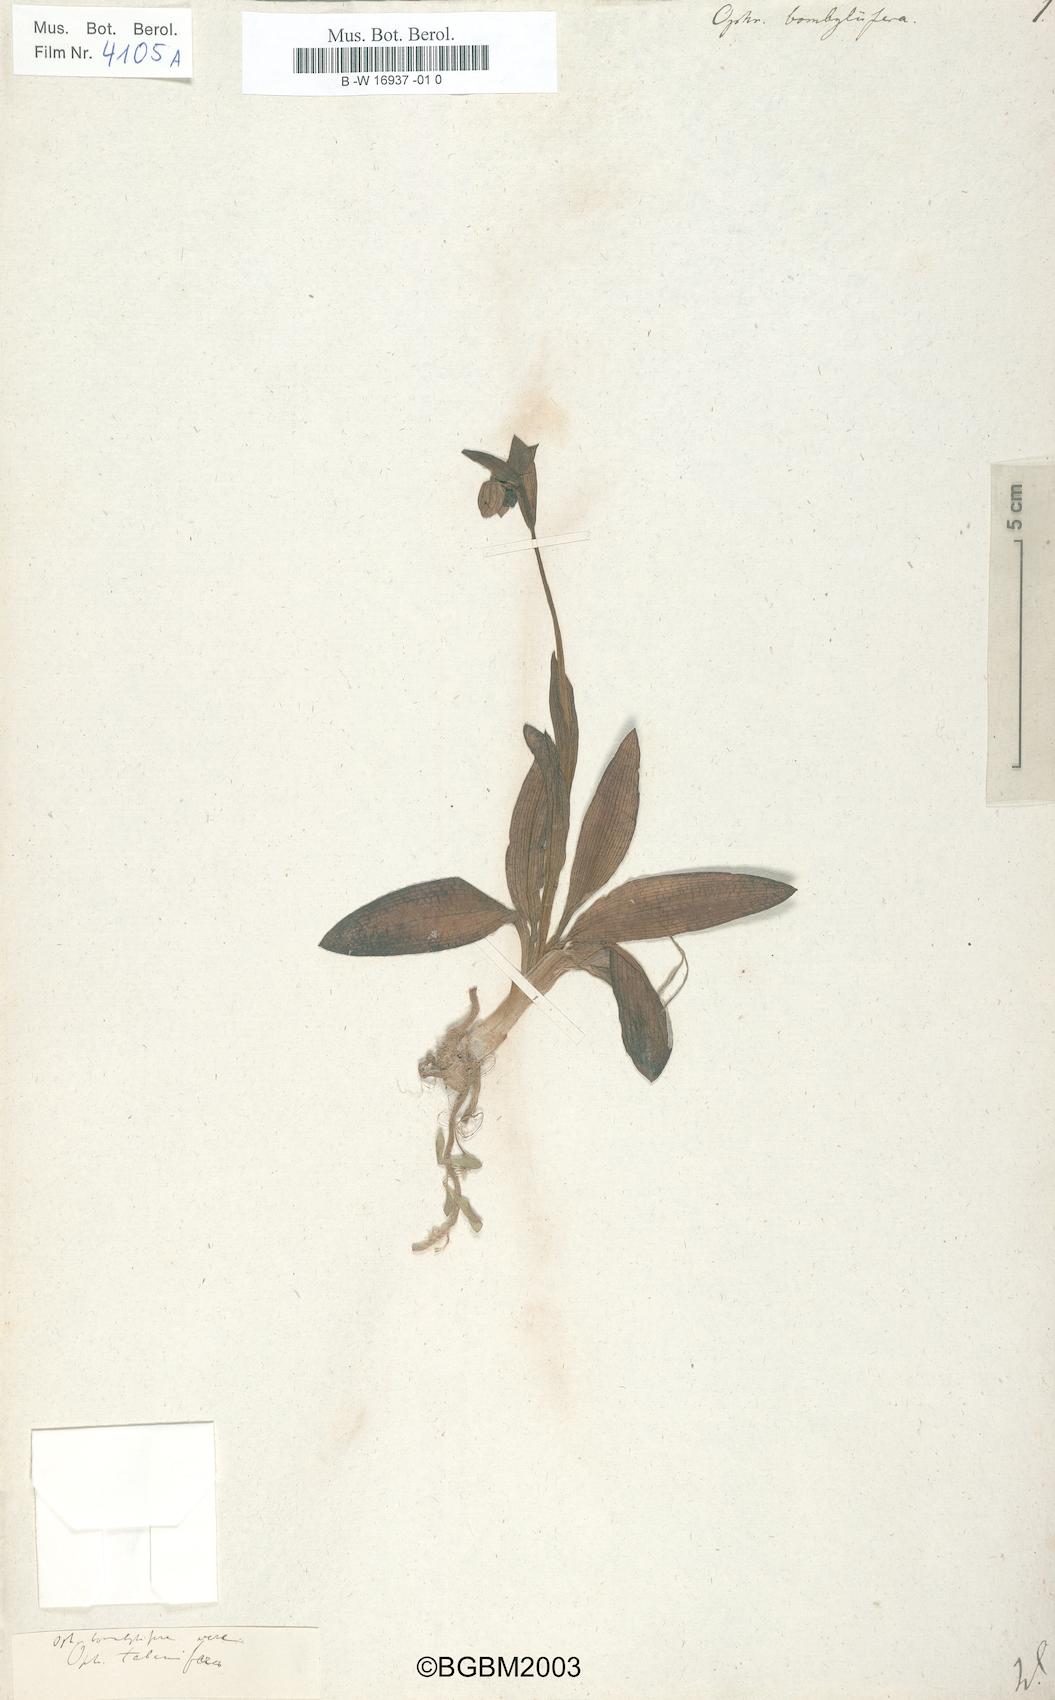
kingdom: Plantae
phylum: Tracheophyta
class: Liliopsida
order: Asparagales
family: Orchidaceae
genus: Ophrys
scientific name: Ophrys bombyliflora
